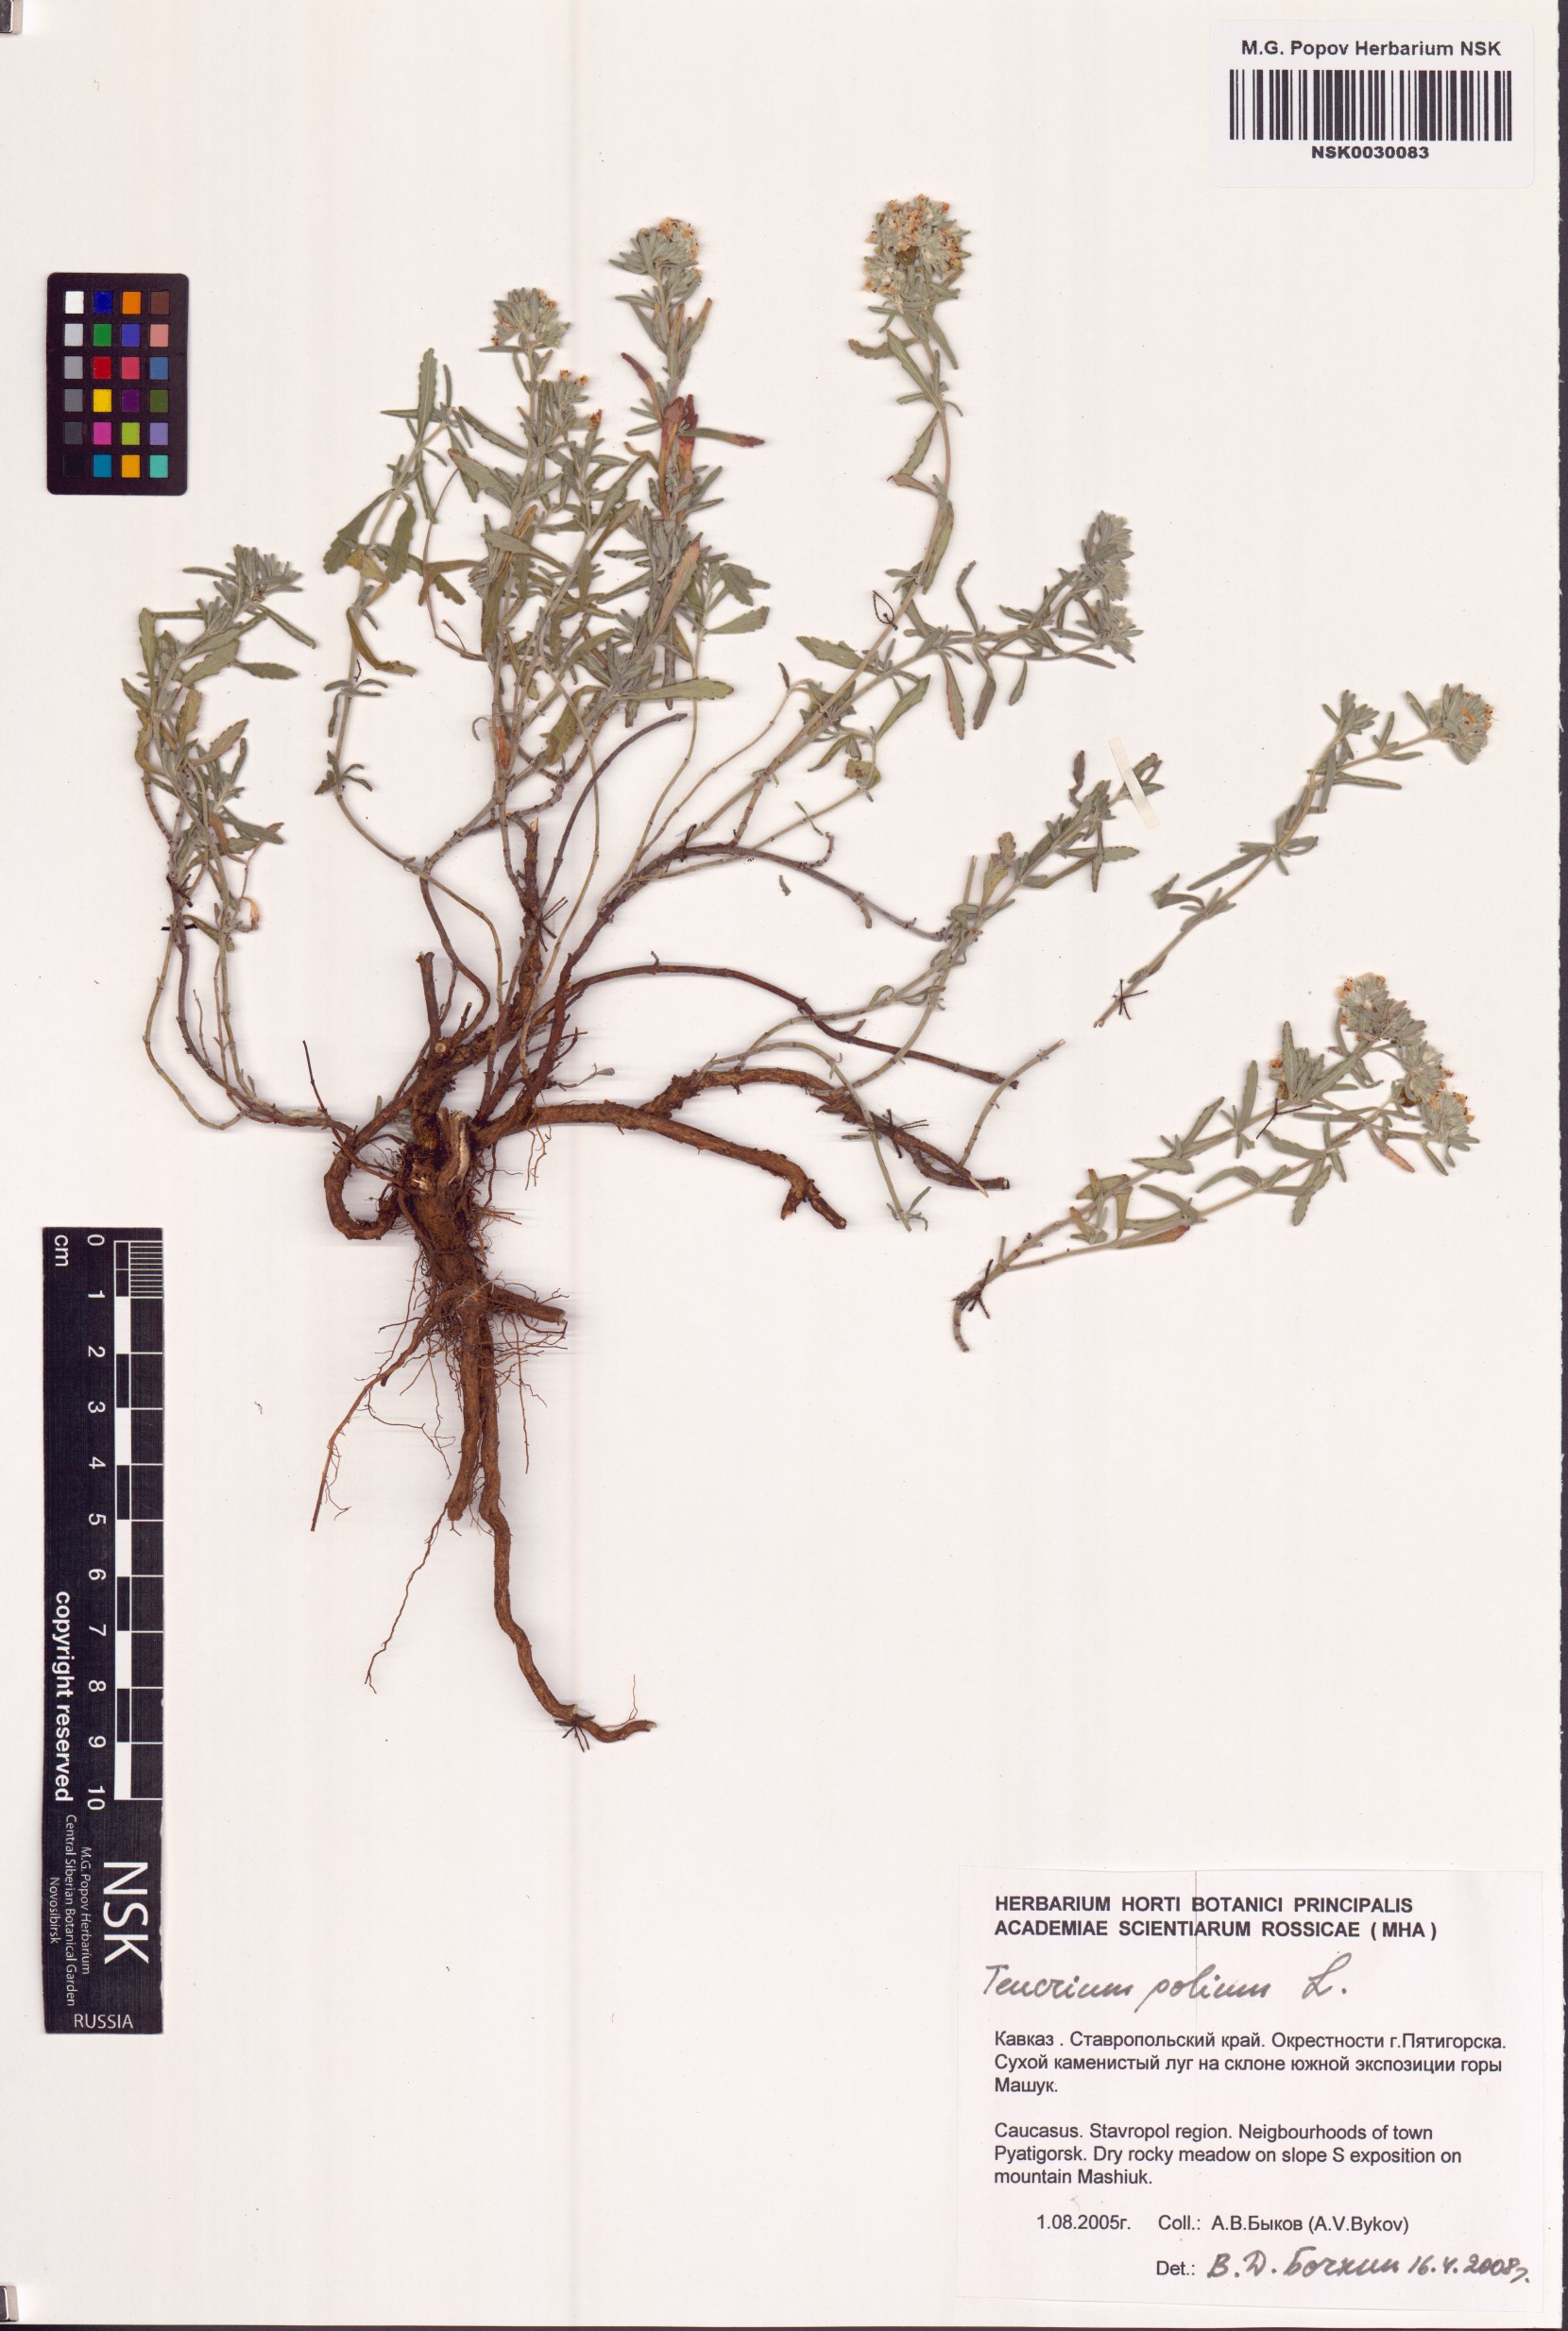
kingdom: Plantae
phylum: Tracheophyta
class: Magnoliopsida
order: Lamiales
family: Lamiaceae
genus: Teucrium
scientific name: Teucrium polium
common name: Poley
